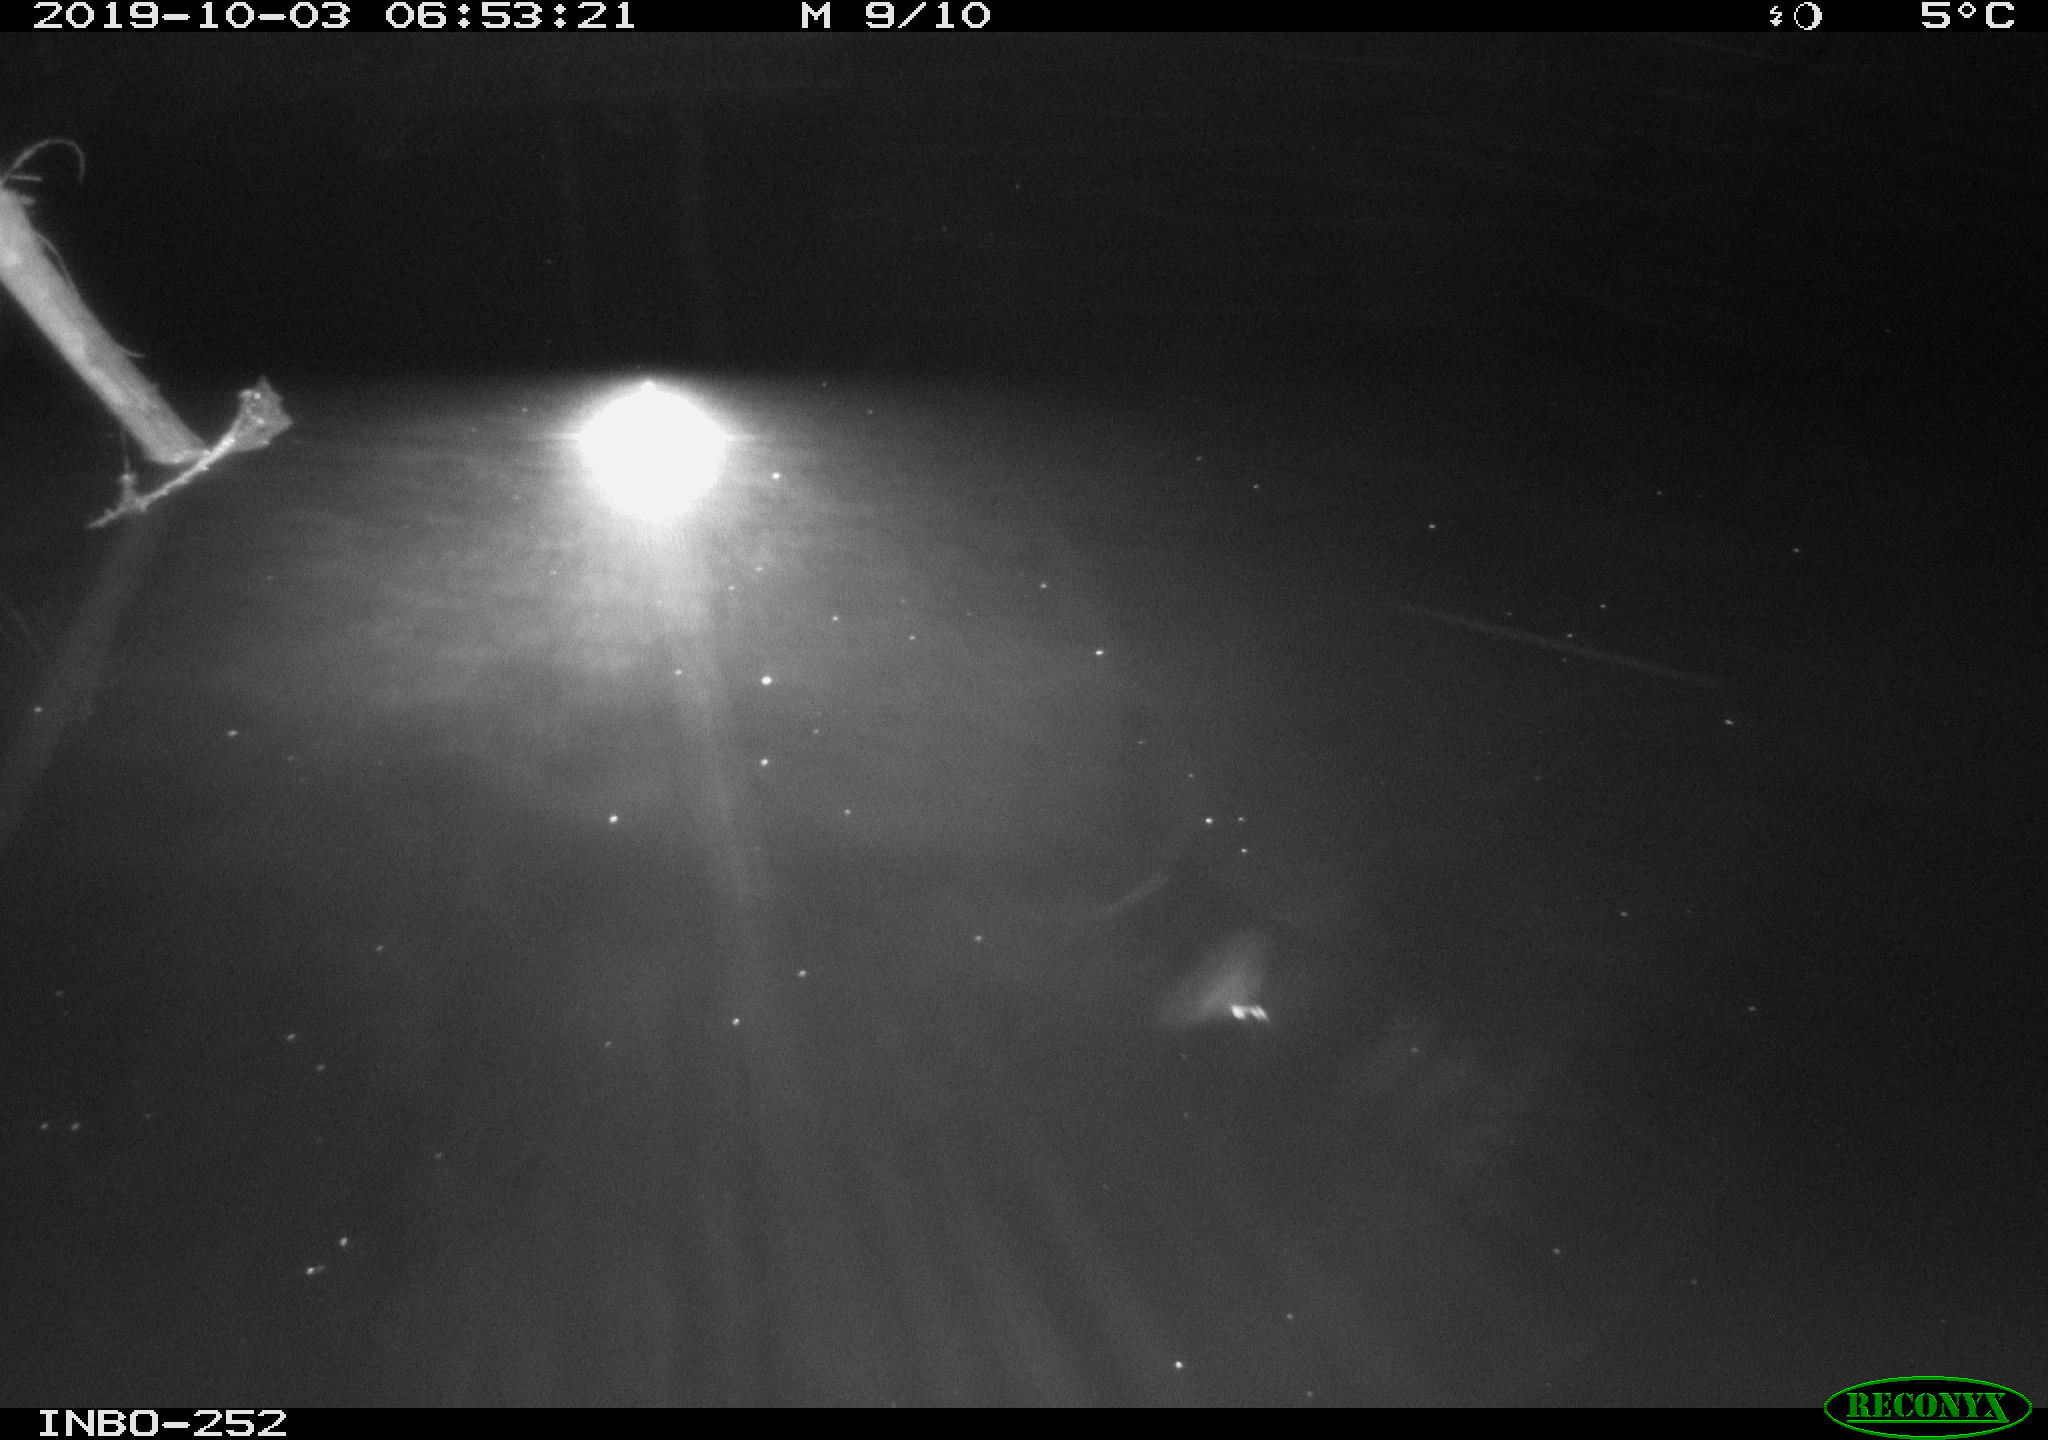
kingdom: Animalia
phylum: Chordata
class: Aves
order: Anseriformes
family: Anatidae
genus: Anas
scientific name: Anas platyrhynchos
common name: Mallard
